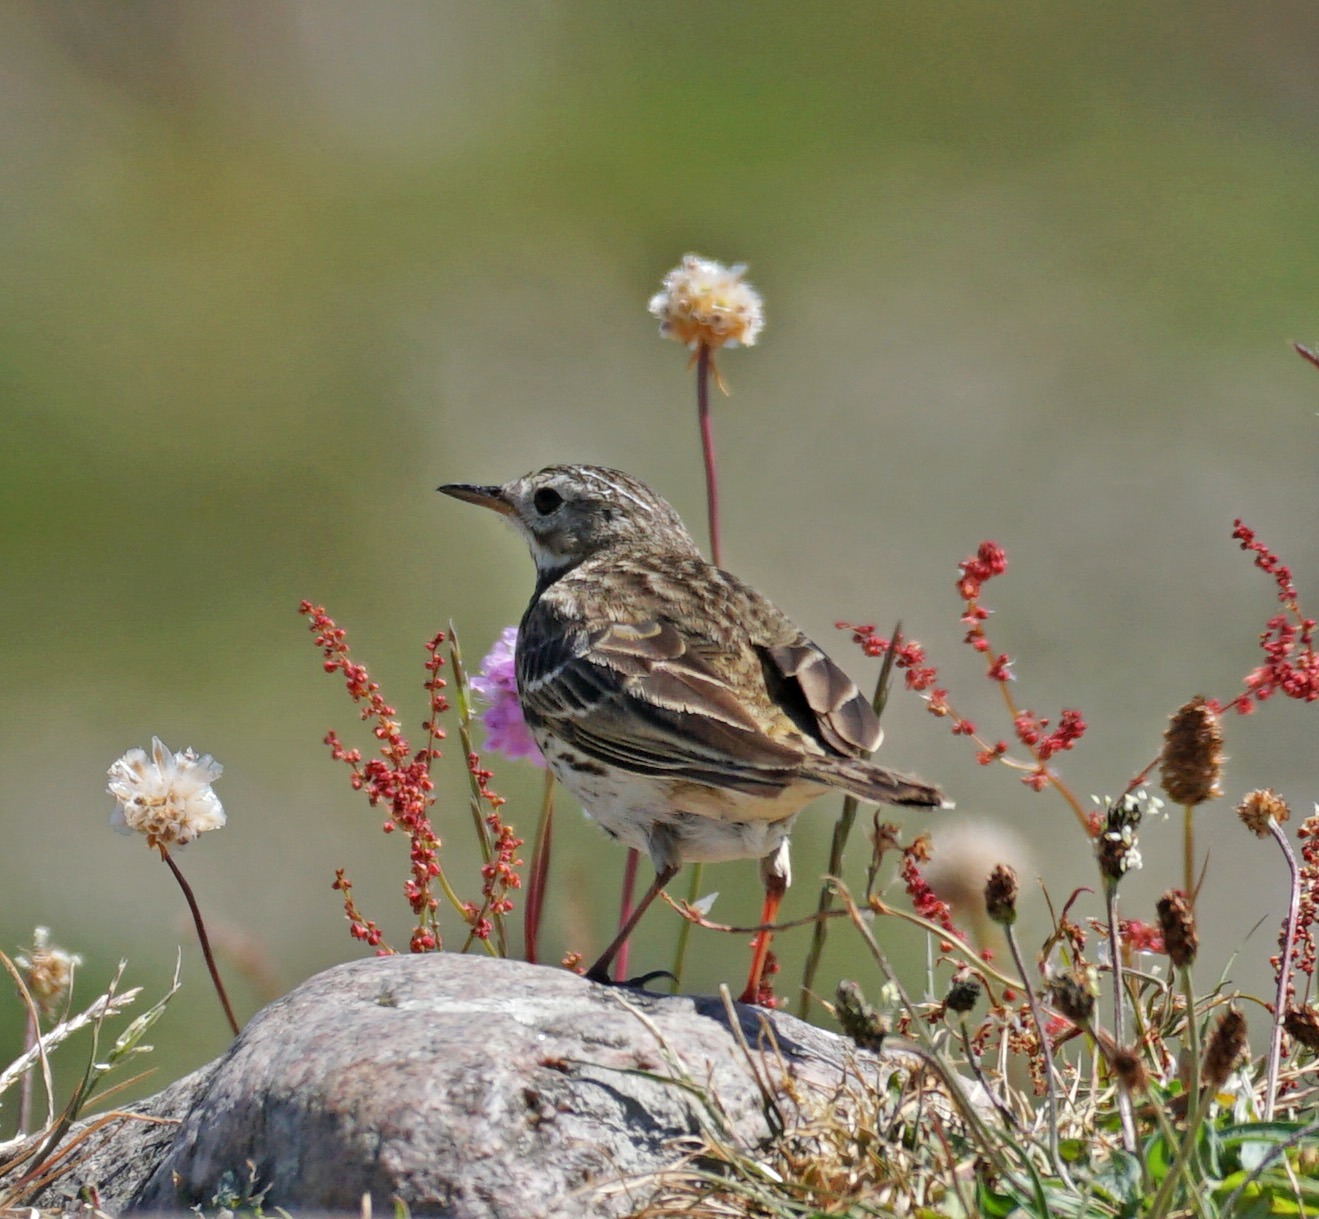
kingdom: Animalia
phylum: Chordata
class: Aves
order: Passeriformes
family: Motacillidae
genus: Anthus
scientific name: Anthus pratensis
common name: Engpiber
